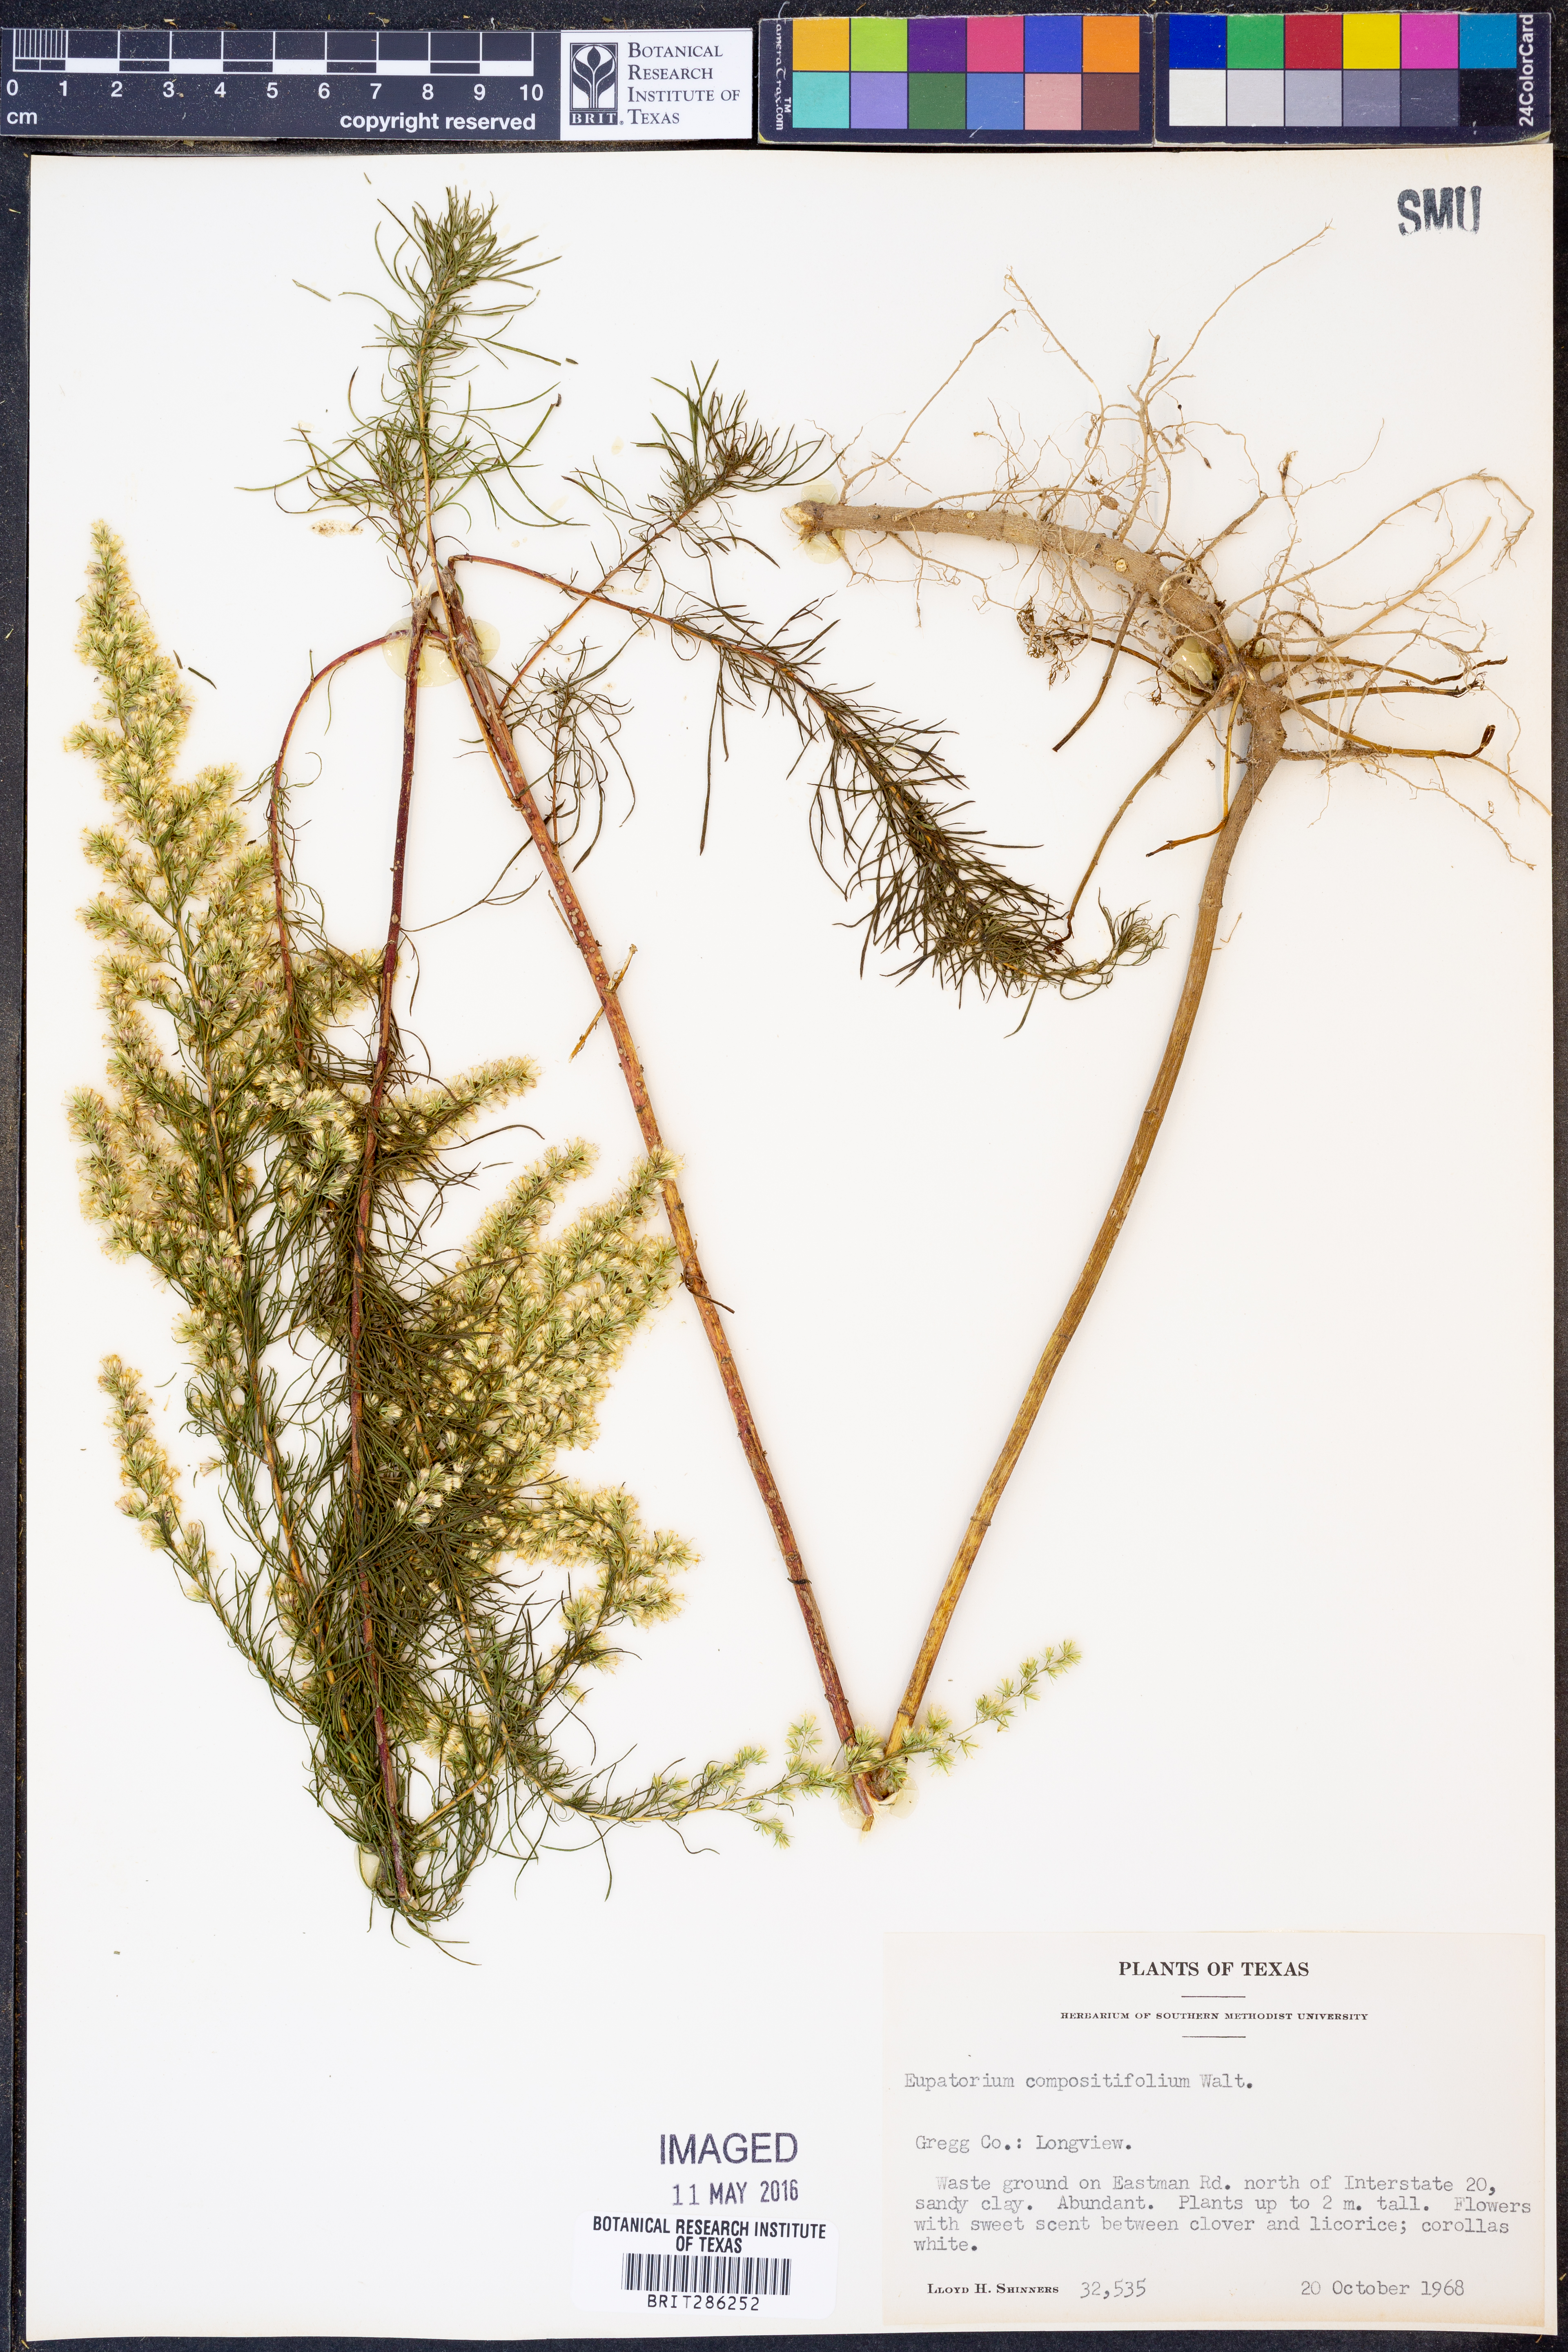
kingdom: Plantae
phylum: Tracheophyta
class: Magnoliopsida
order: Asterales
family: Asteraceae
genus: Eupatorium
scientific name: Eupatorium compositifolium
